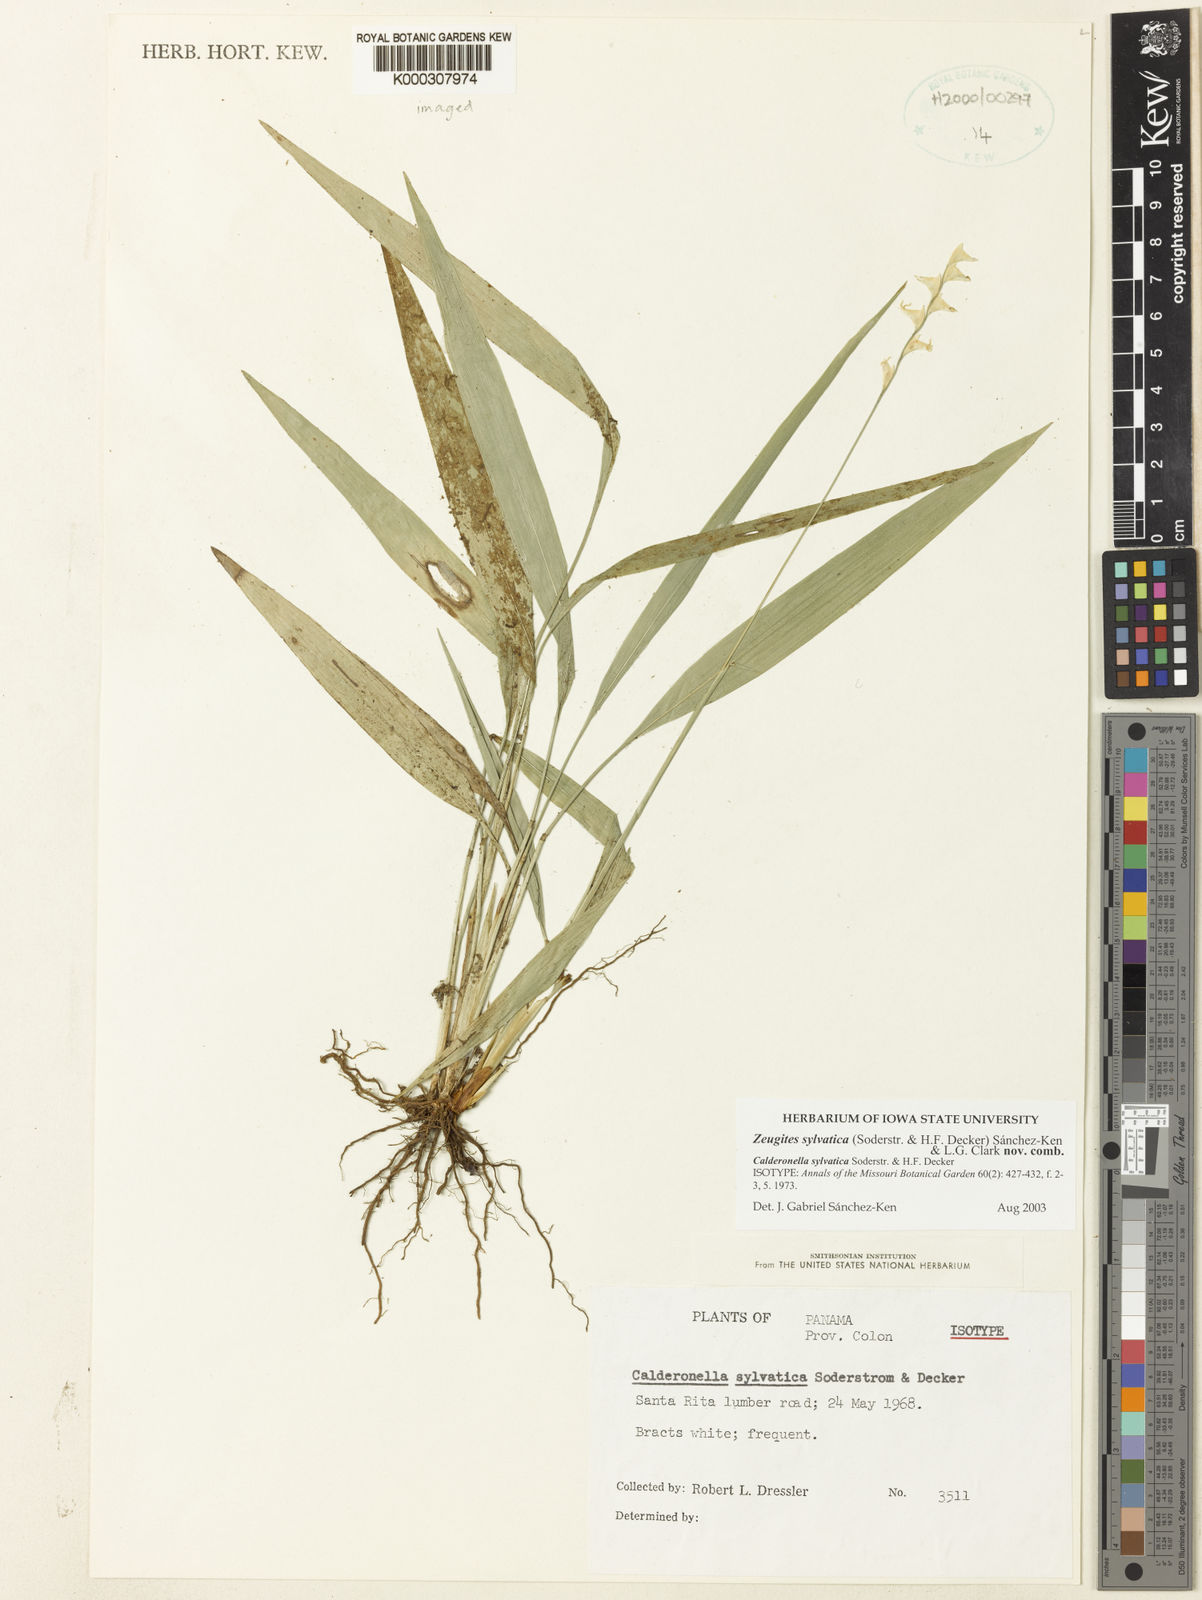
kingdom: Plantae
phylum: Tracheophyta
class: Liliopsida
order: Poales
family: Poaceae
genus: Zeugites
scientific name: Zeugites sylvaticus
